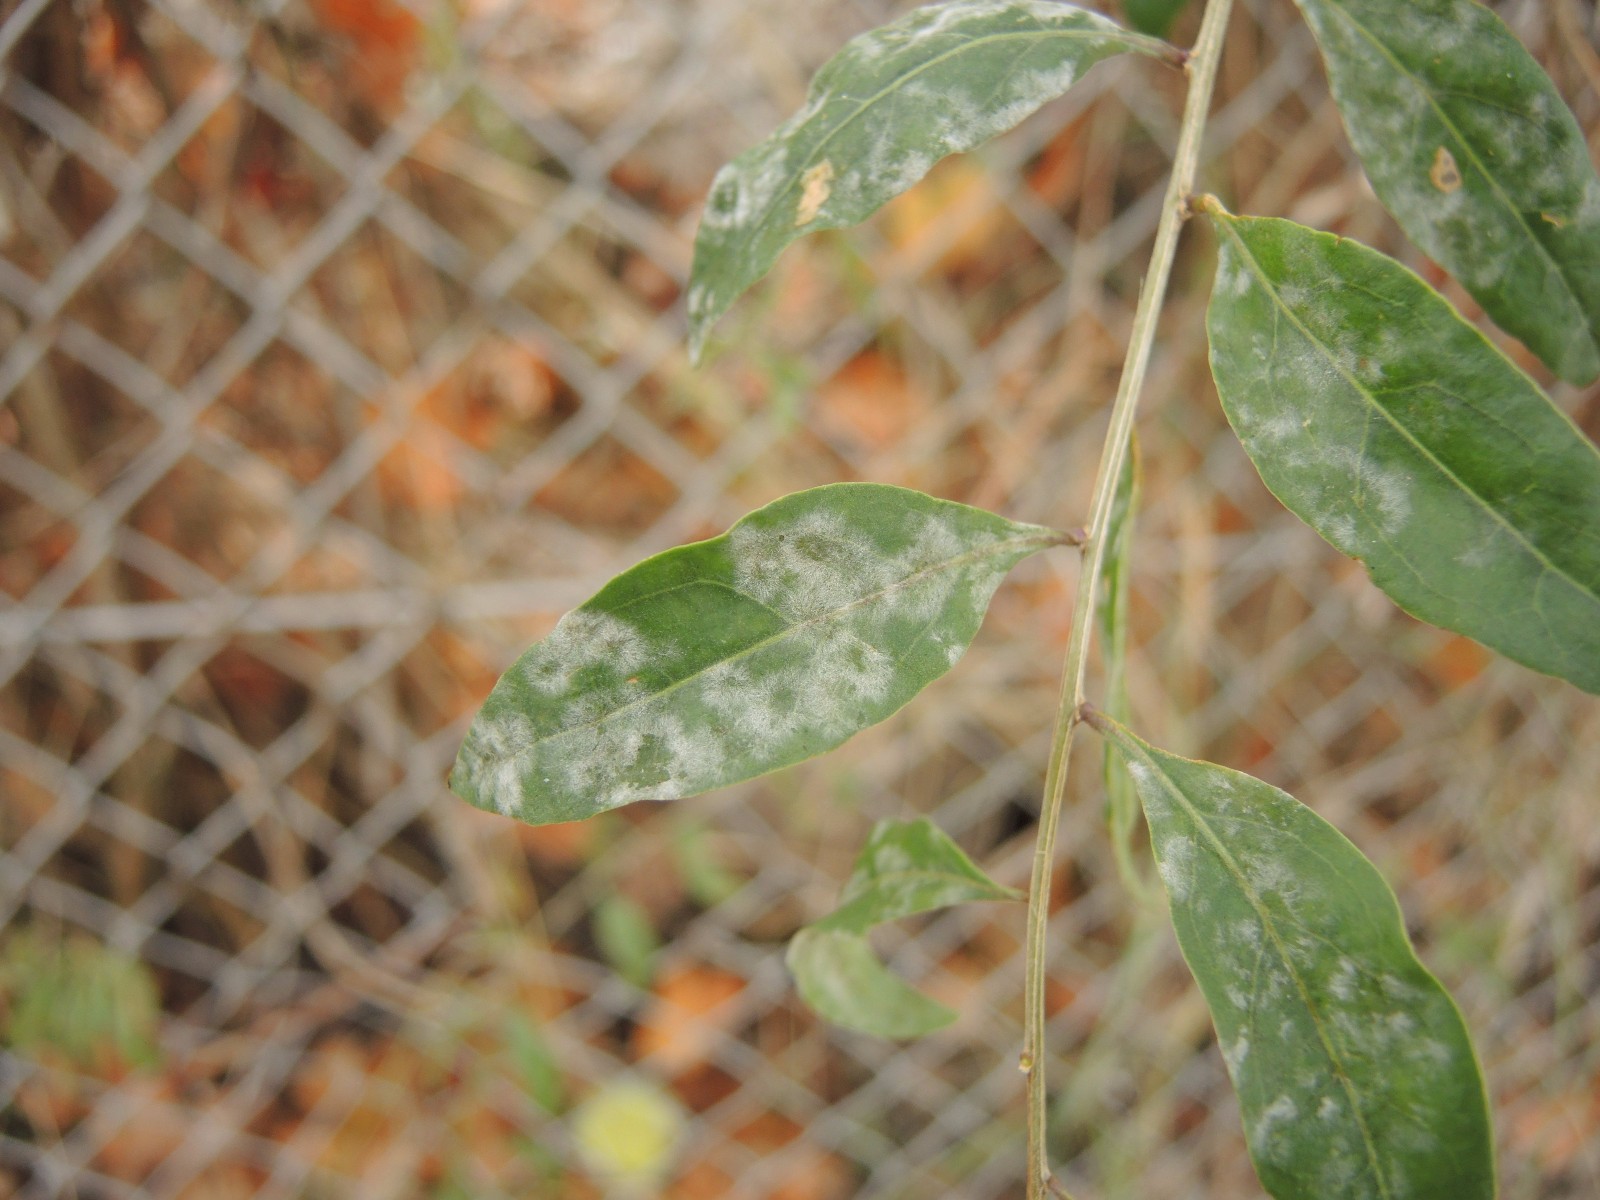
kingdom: Fungi
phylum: Ascomycota
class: Leotiomycetes
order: Helotiales
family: Erysiphaceae
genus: Erysiphe
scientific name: Erysiphe mougeotii
